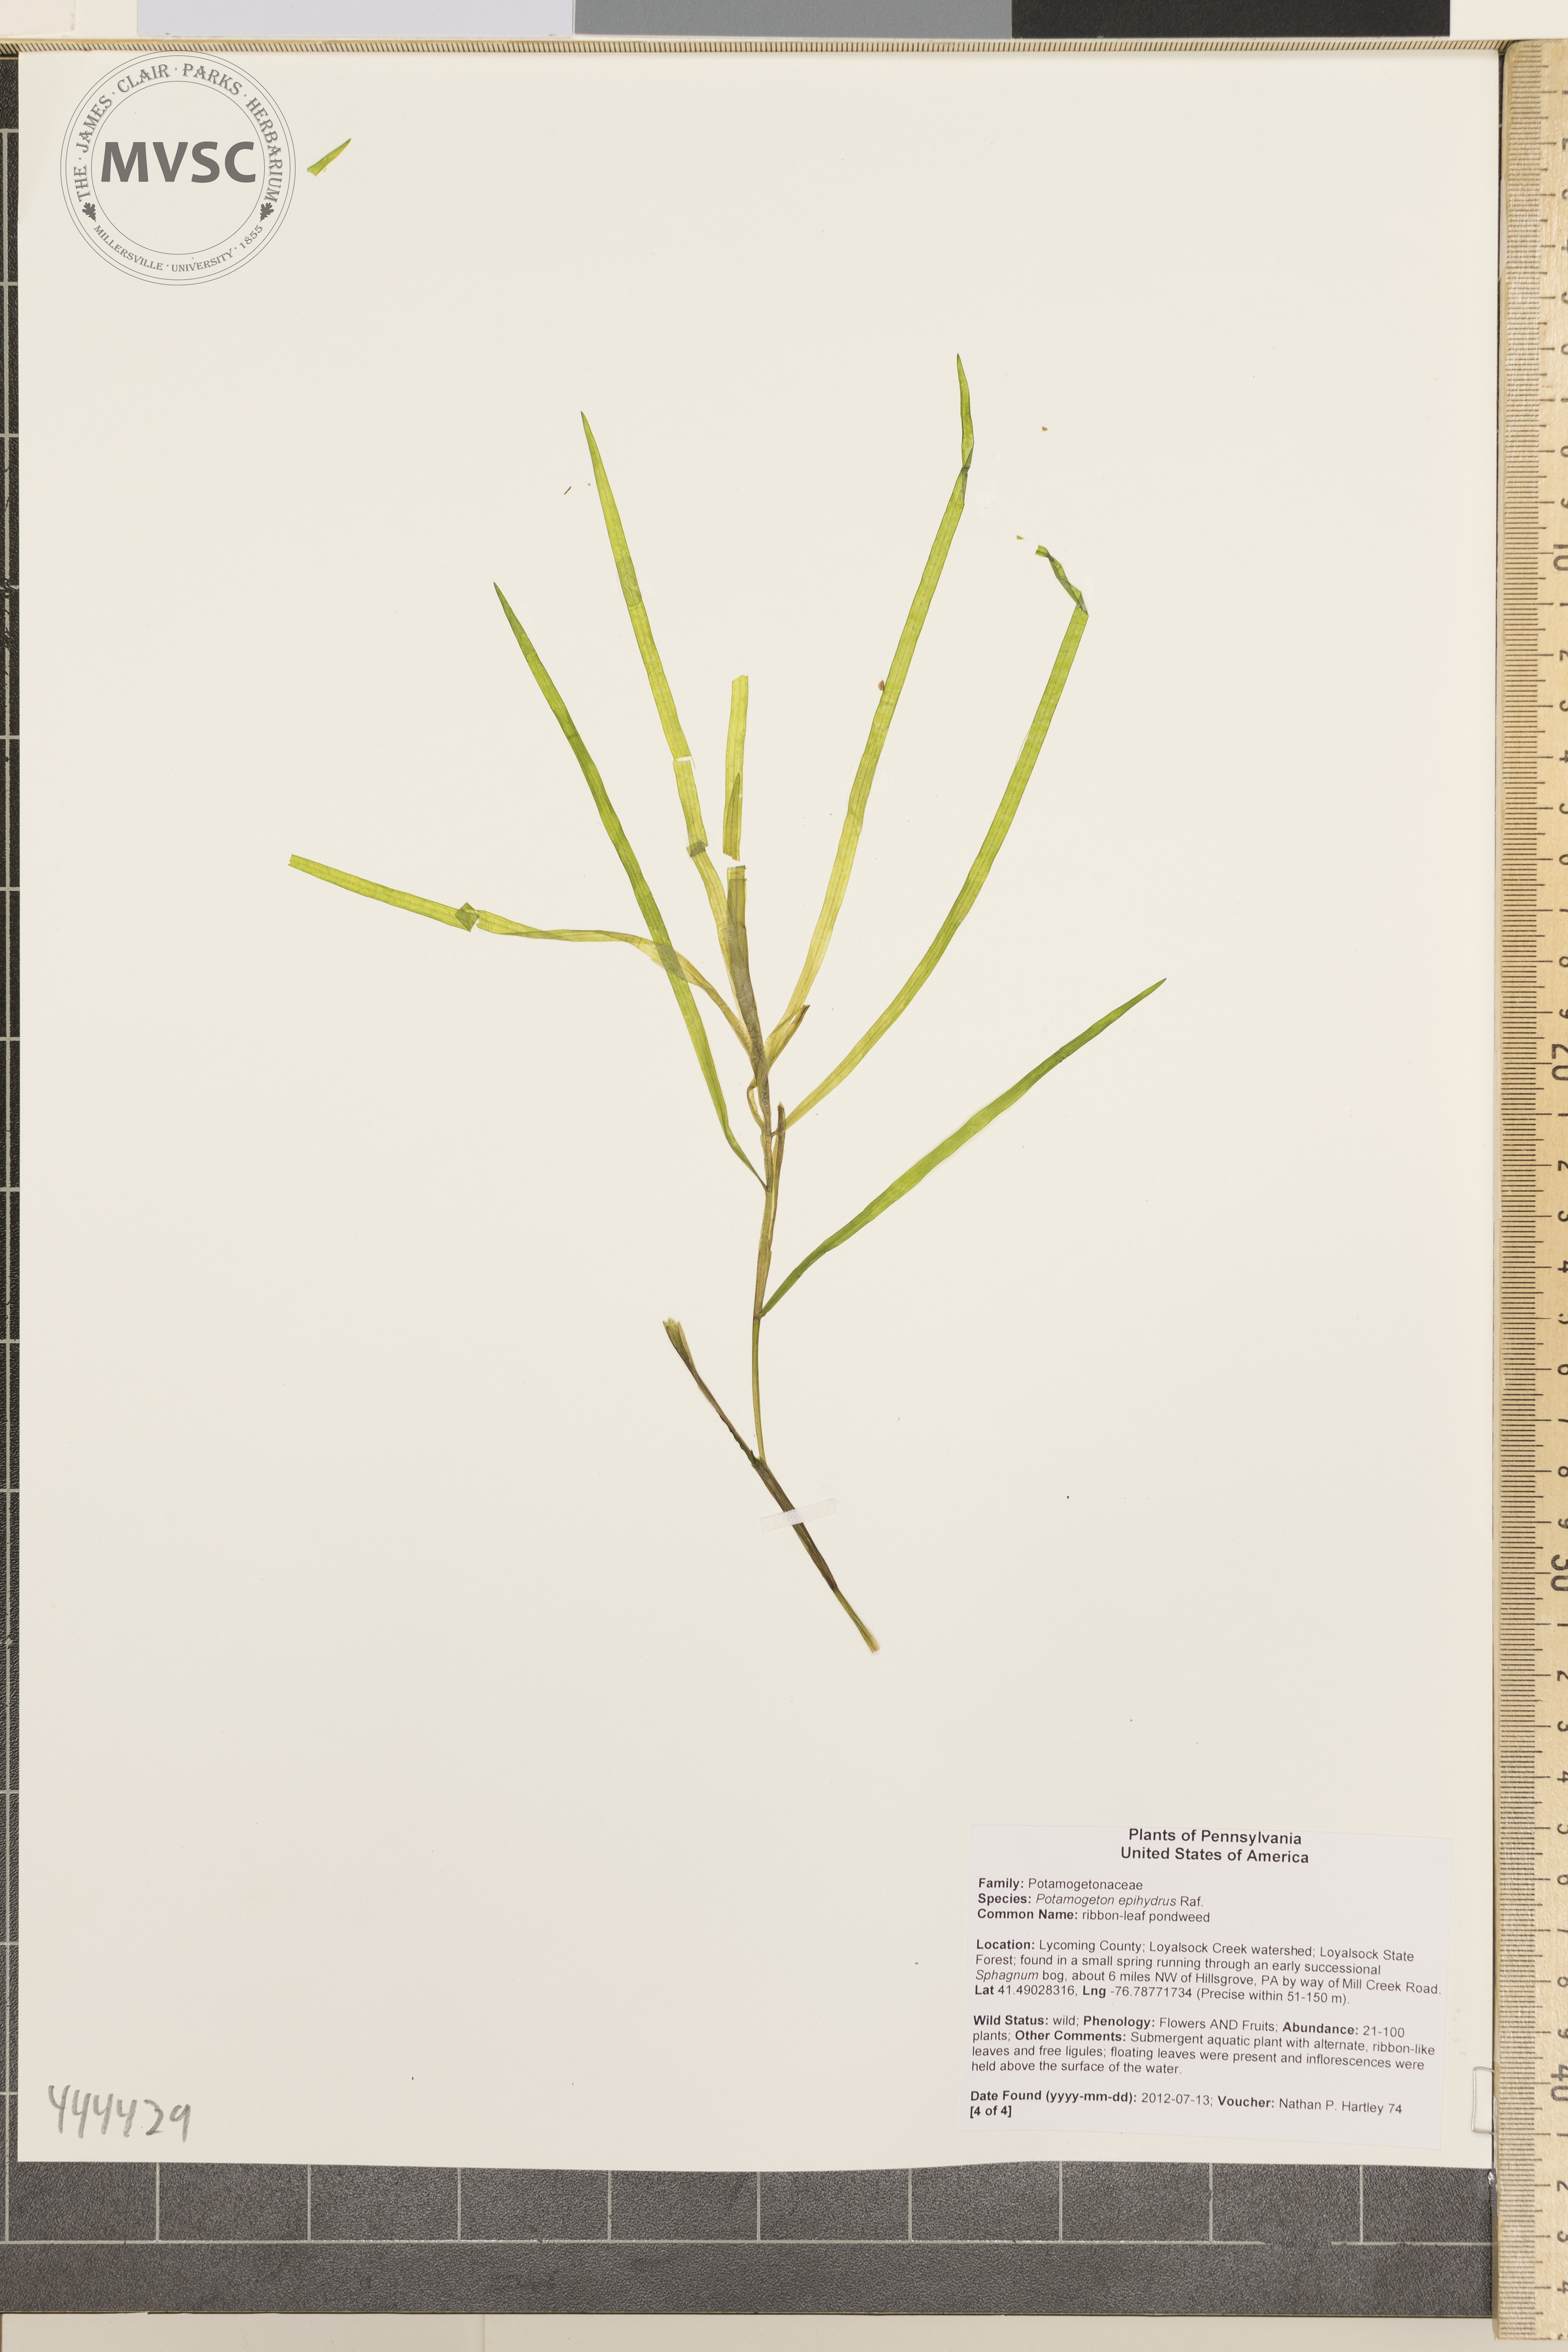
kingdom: Plantae
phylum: Tracheophyta
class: Liliopsida
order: Alismatales
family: Potamogetonaceae
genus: Potamogeton
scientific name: Potamogeton epihydrus
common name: Ribbonleaf pondweed
